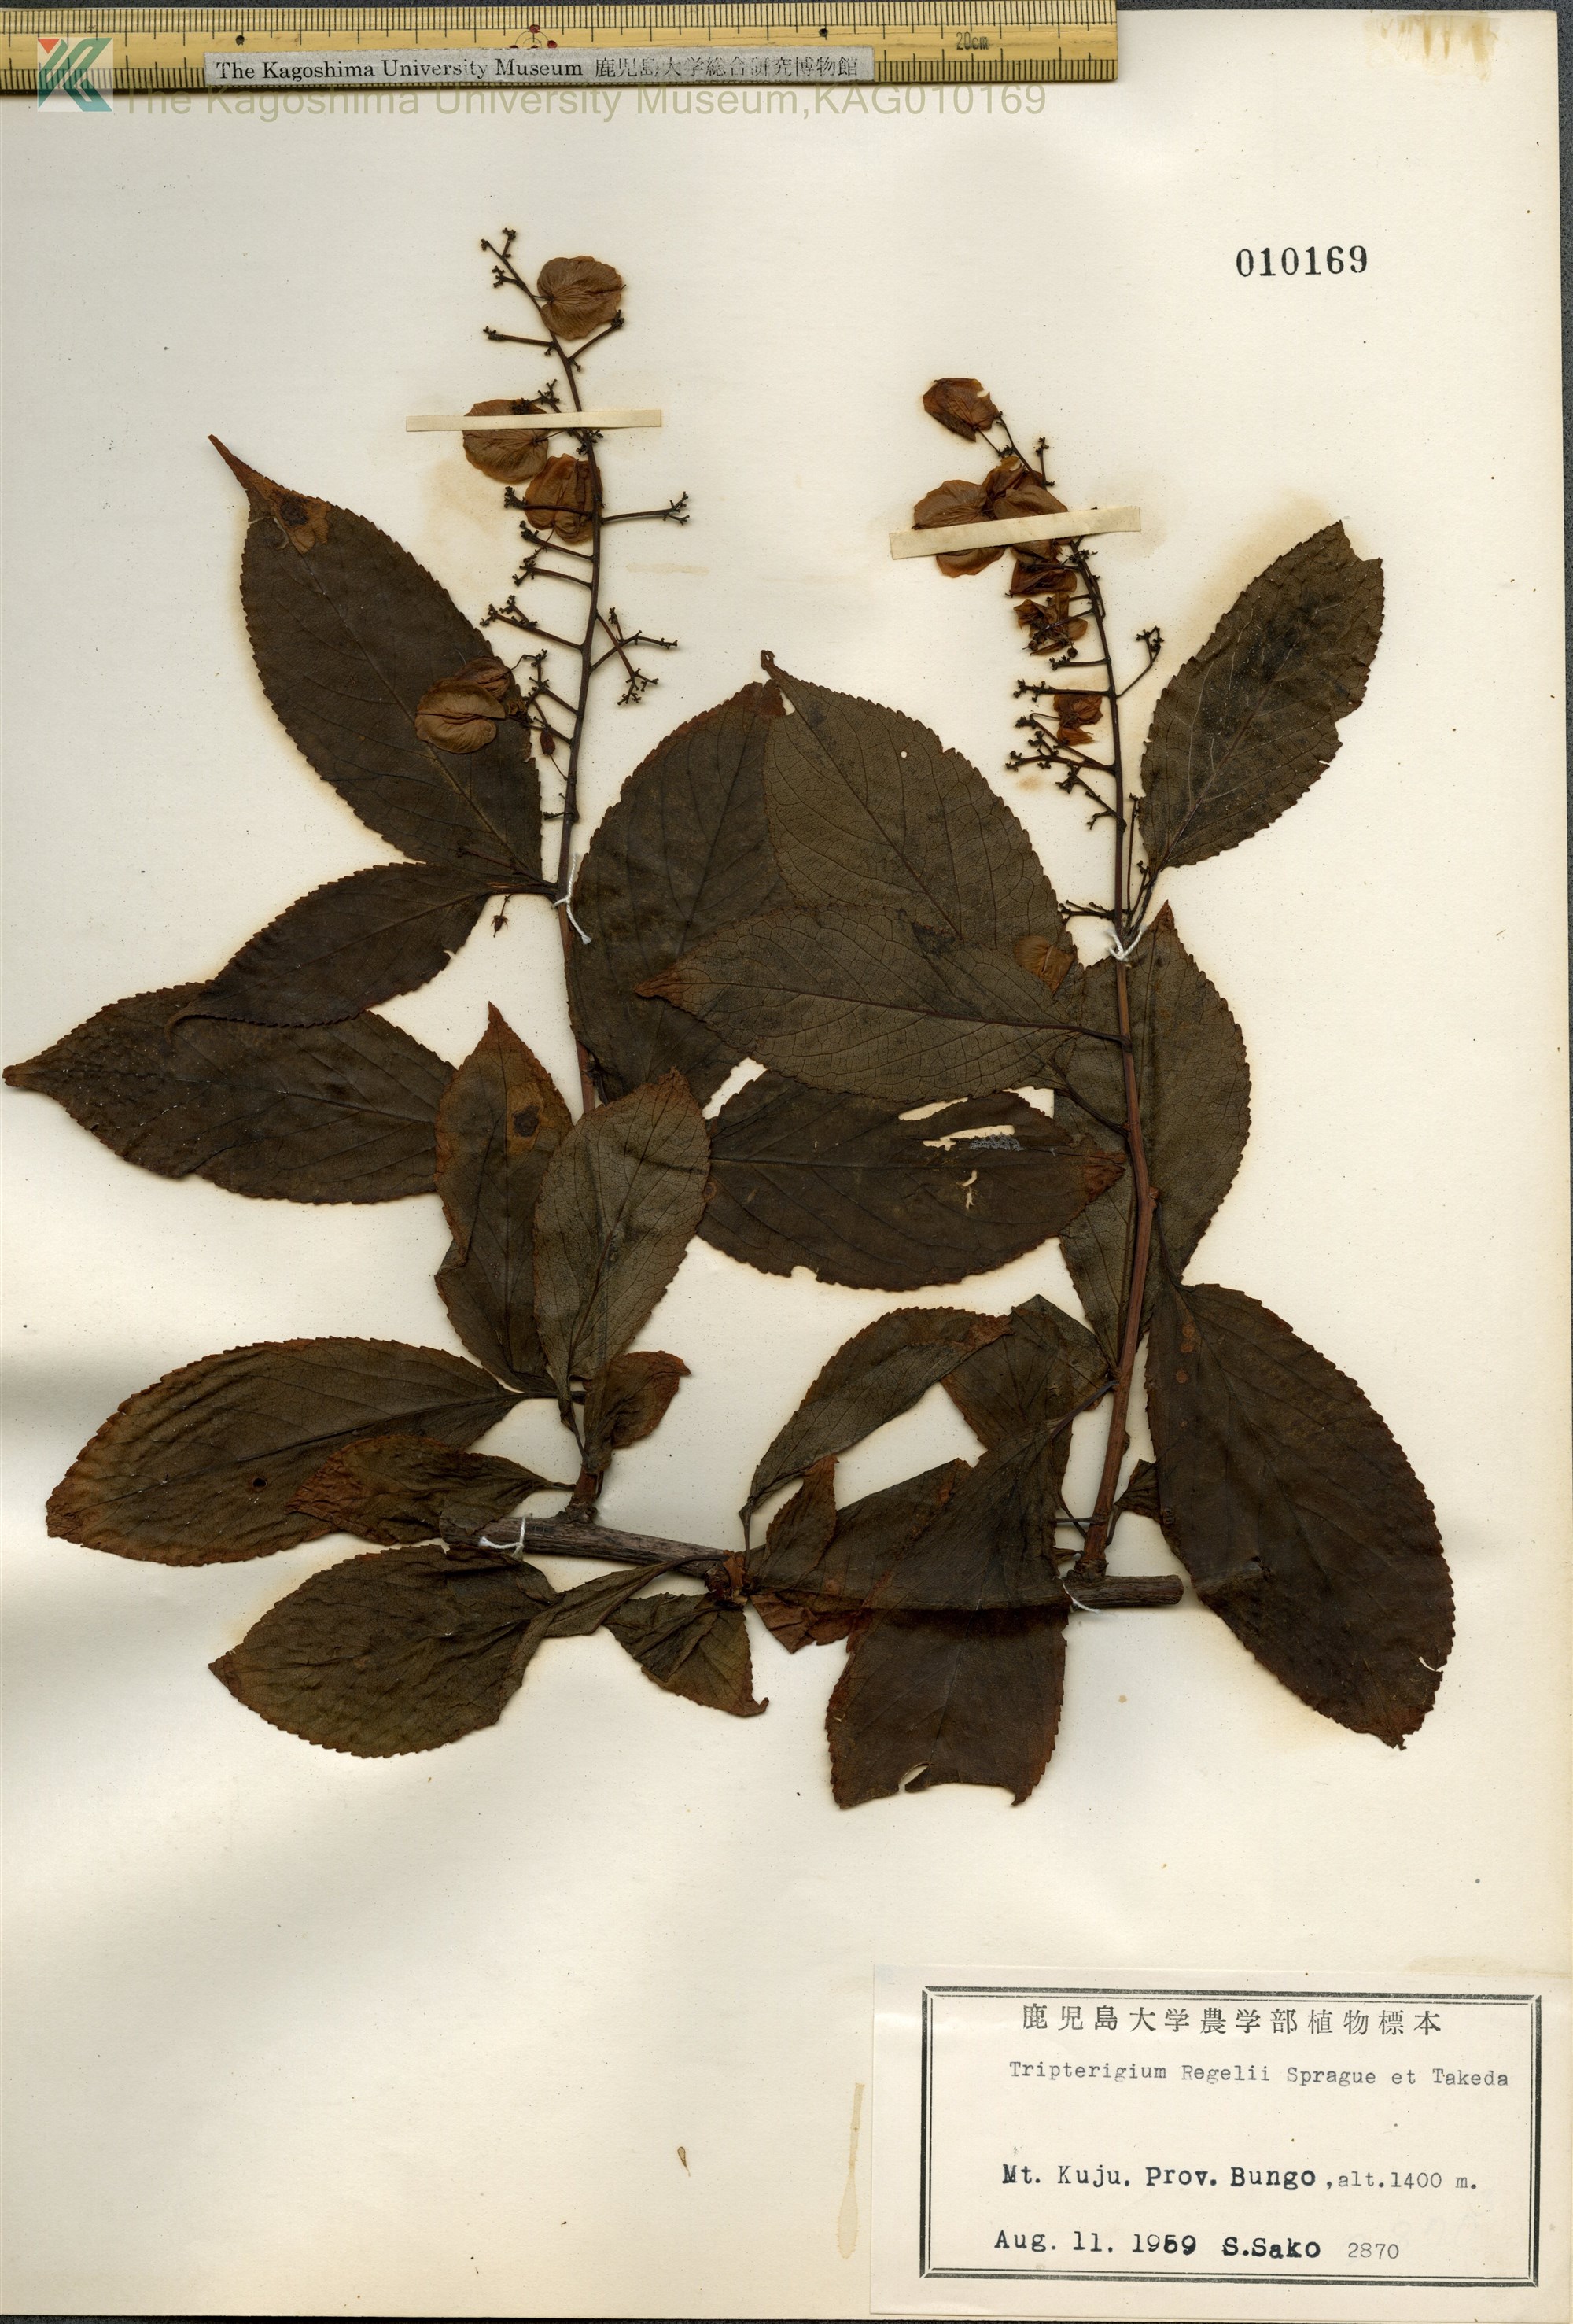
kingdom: Plantae
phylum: Tracheophyta
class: Magnoliopsida
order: Celastrales
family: Celastraceae
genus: Tripterygium
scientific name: Tripterygium wilfordii
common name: クロヅル
